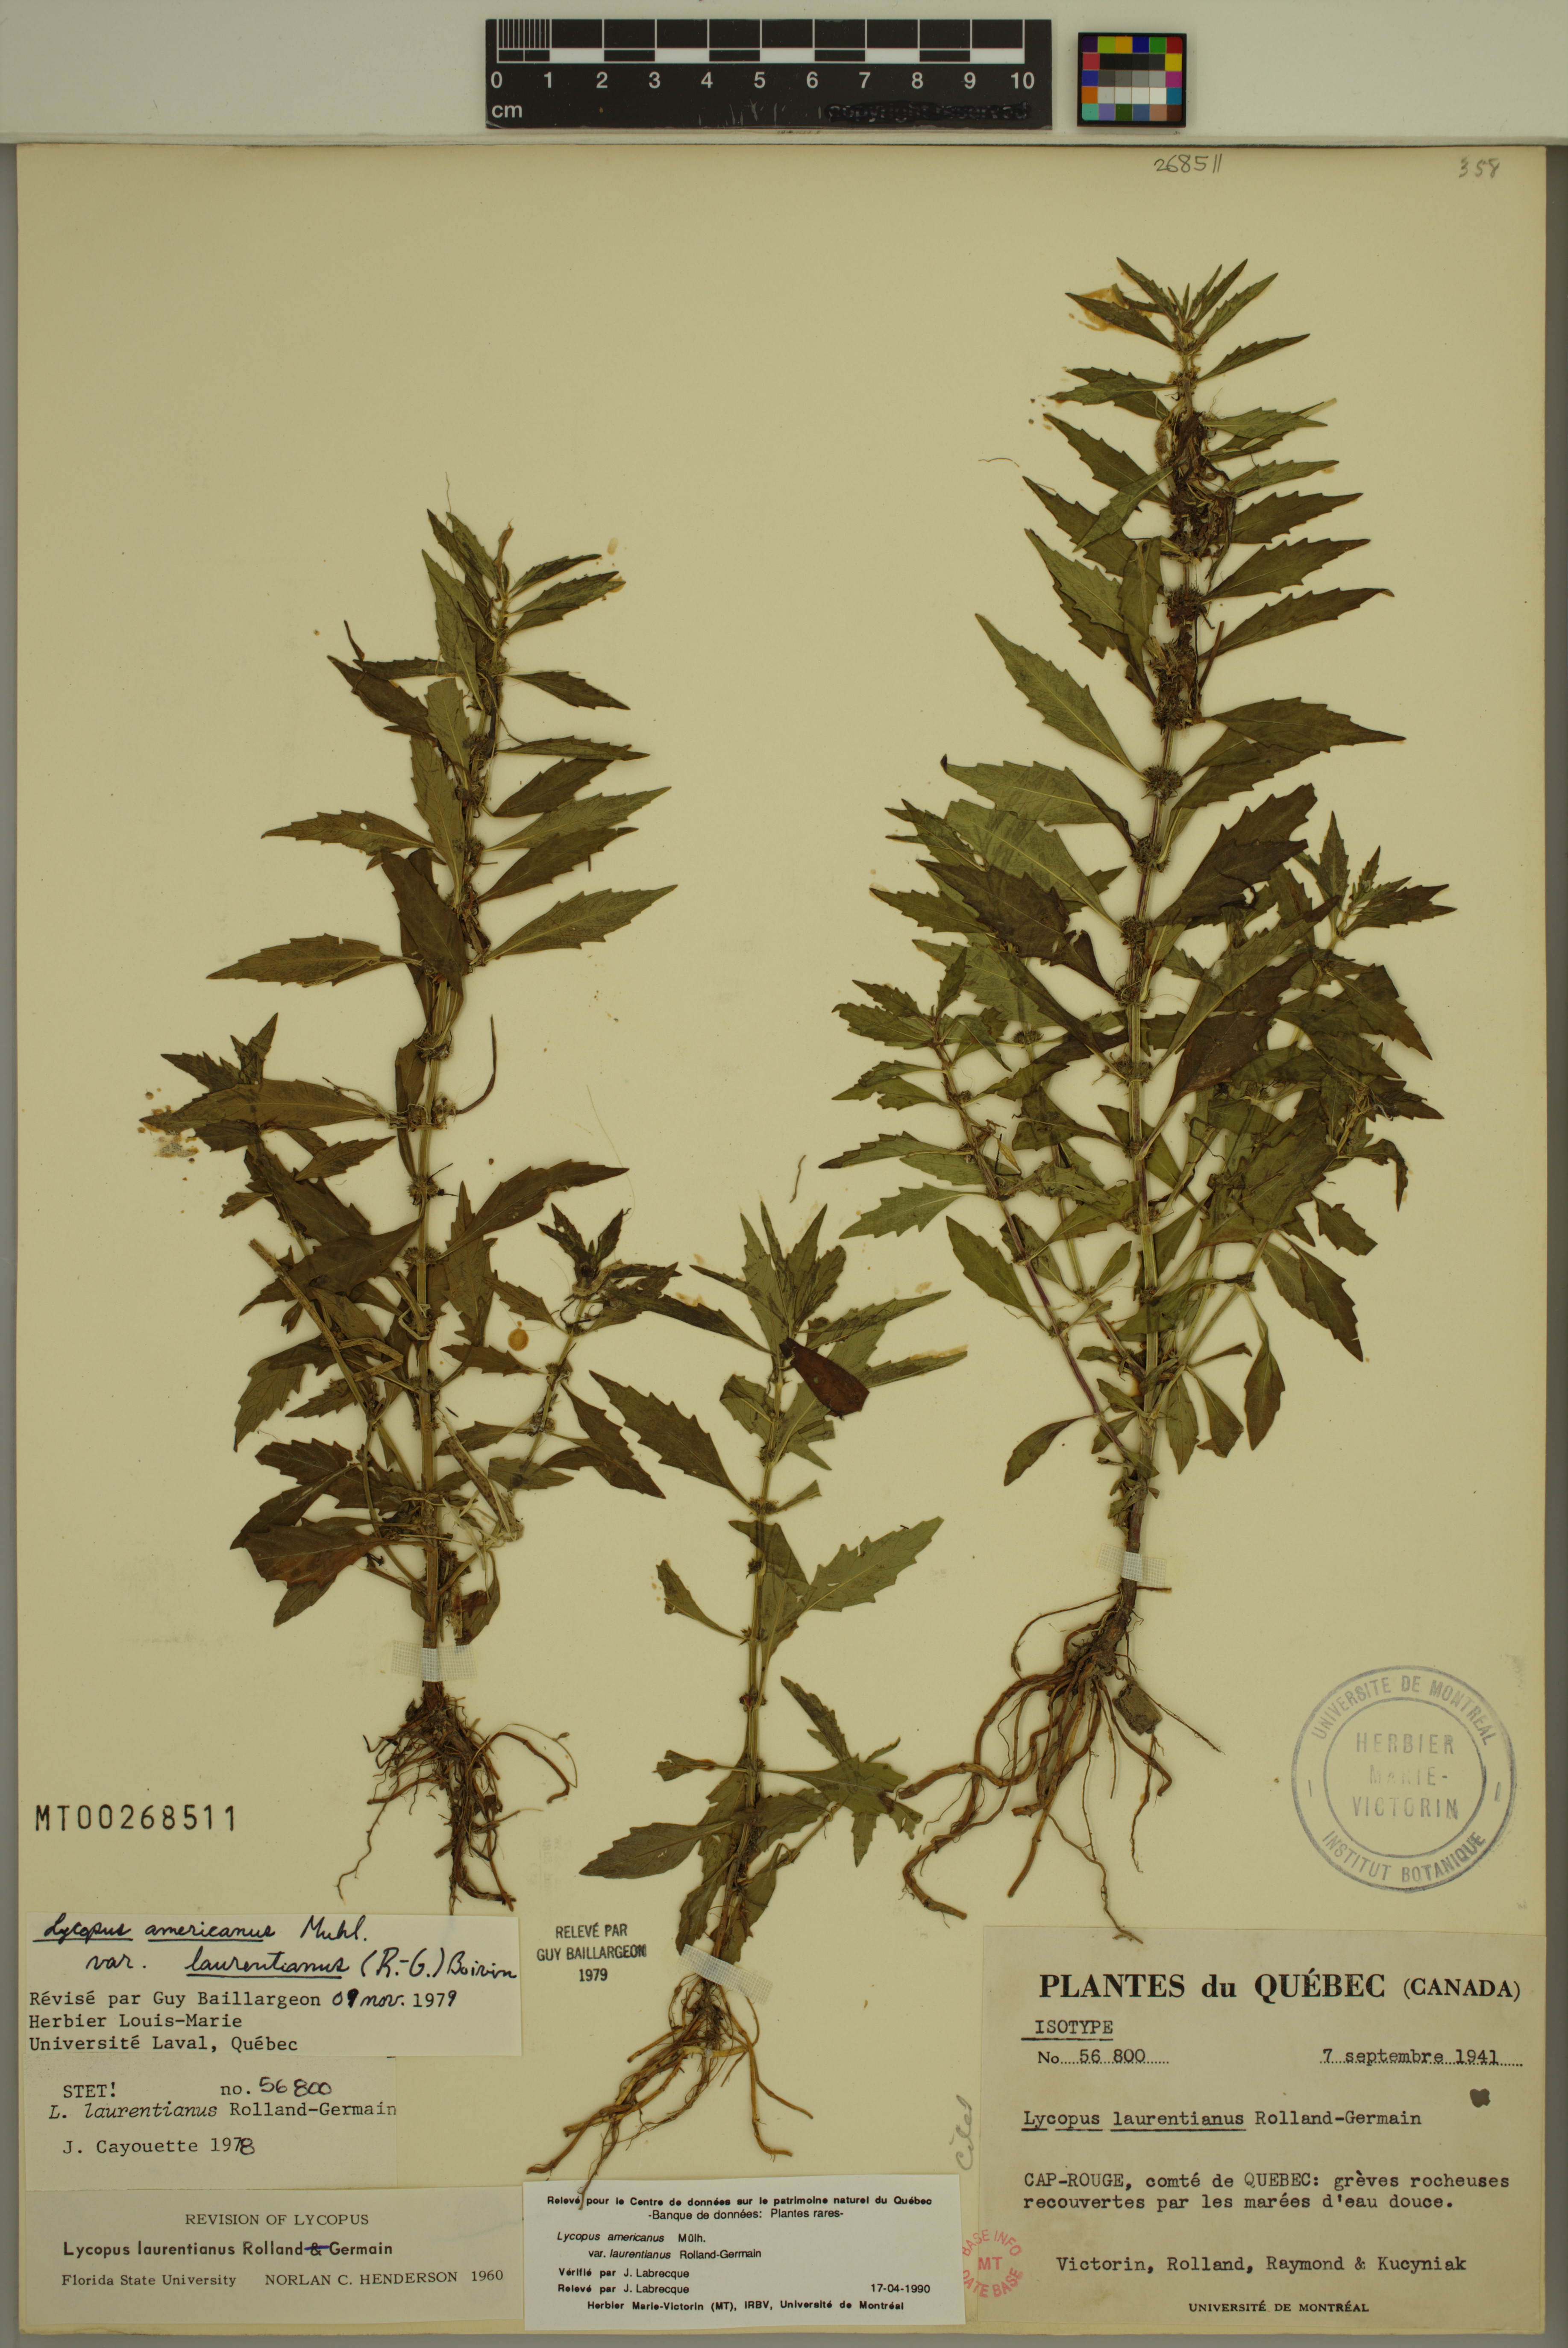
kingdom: Plantae
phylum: Tracheophyta
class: Magnoliopsida
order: Lamiales
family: Lamiaceae
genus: Lycopus
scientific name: Lycopus americanus
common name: American bugleweed
